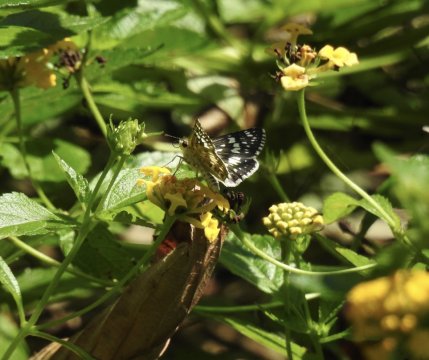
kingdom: Animalia
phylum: Arthropoda
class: Insecta
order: Lepidoptera
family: Hesperiidae
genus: Pyrgus
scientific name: Pyrgus communis
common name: Common Checkered-Skipper
